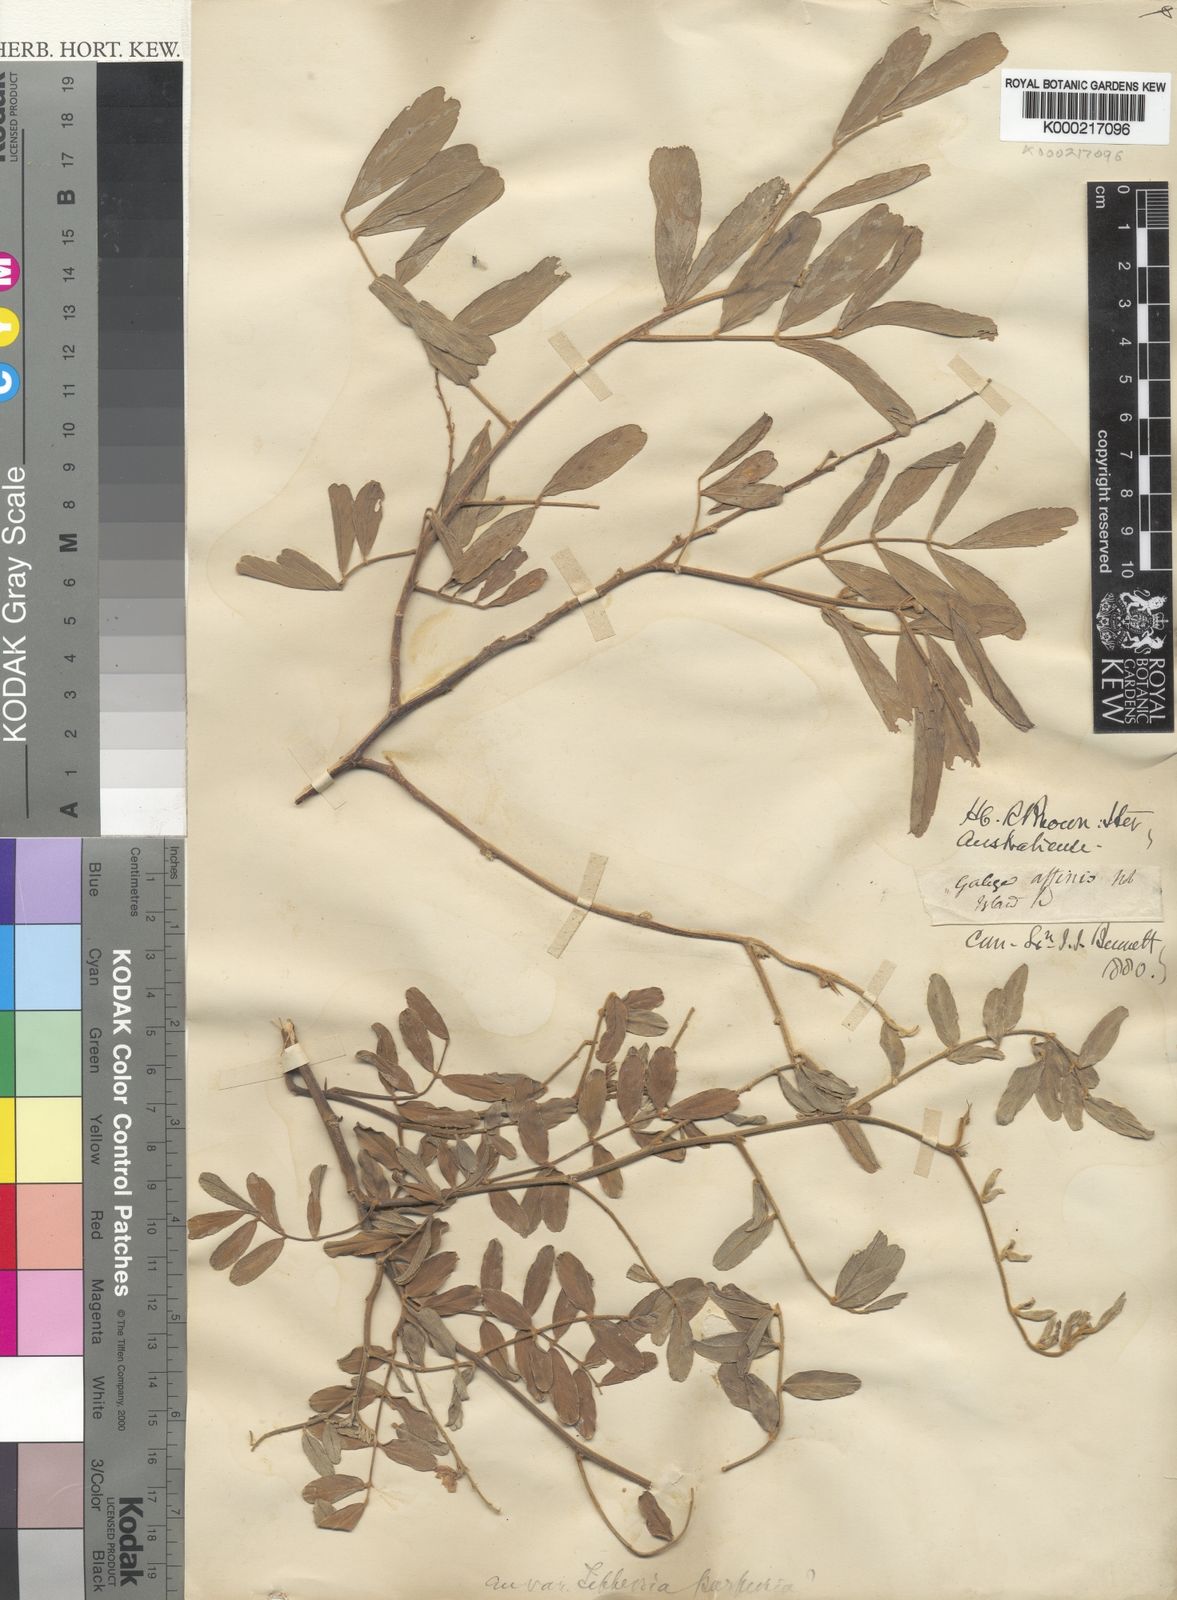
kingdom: Plantae
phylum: Tracheophyta
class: Magnoliopsida
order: Fabales
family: Fabaceae
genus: Tephrosia
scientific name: Tephrosia purpurea
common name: Fishpoison
